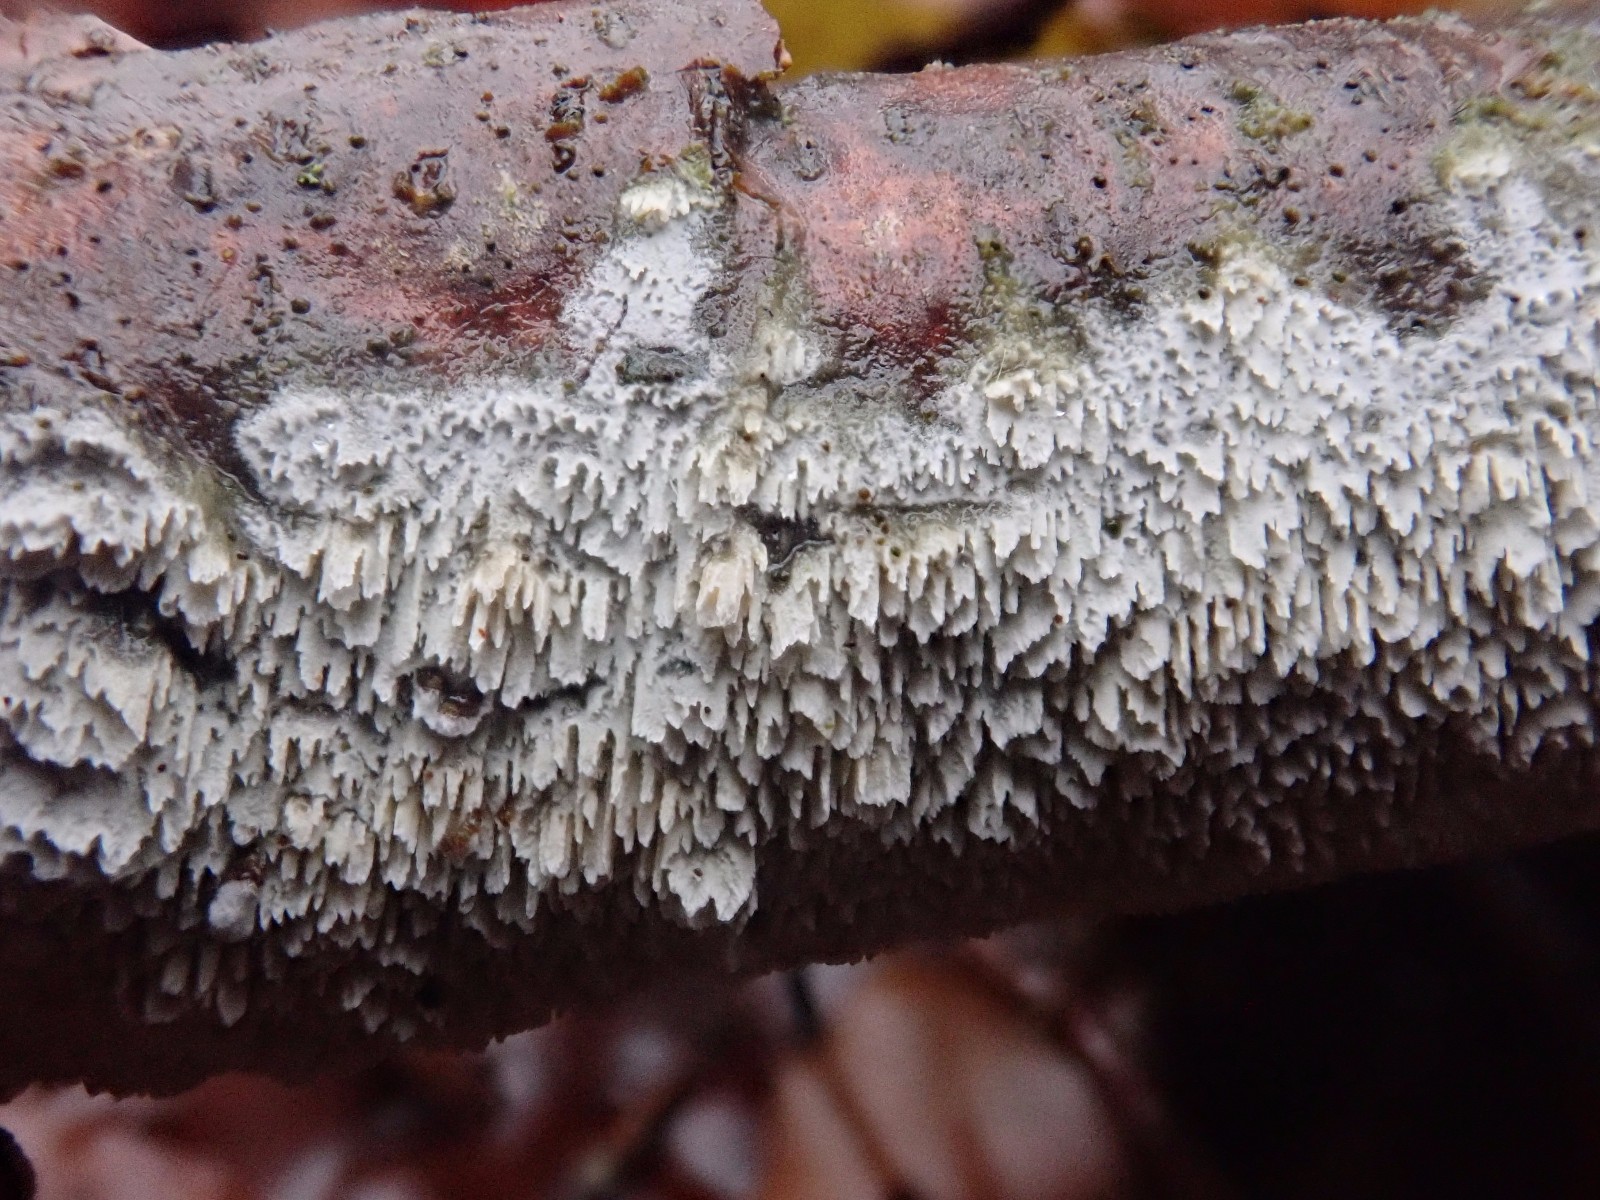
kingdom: Fungi
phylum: Basidiomycota
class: Agaricomycetes
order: Hymenochaetales
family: Schizoporaceae
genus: Schizopora
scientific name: Schizopora paradoxa
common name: hvid tandsvamp
